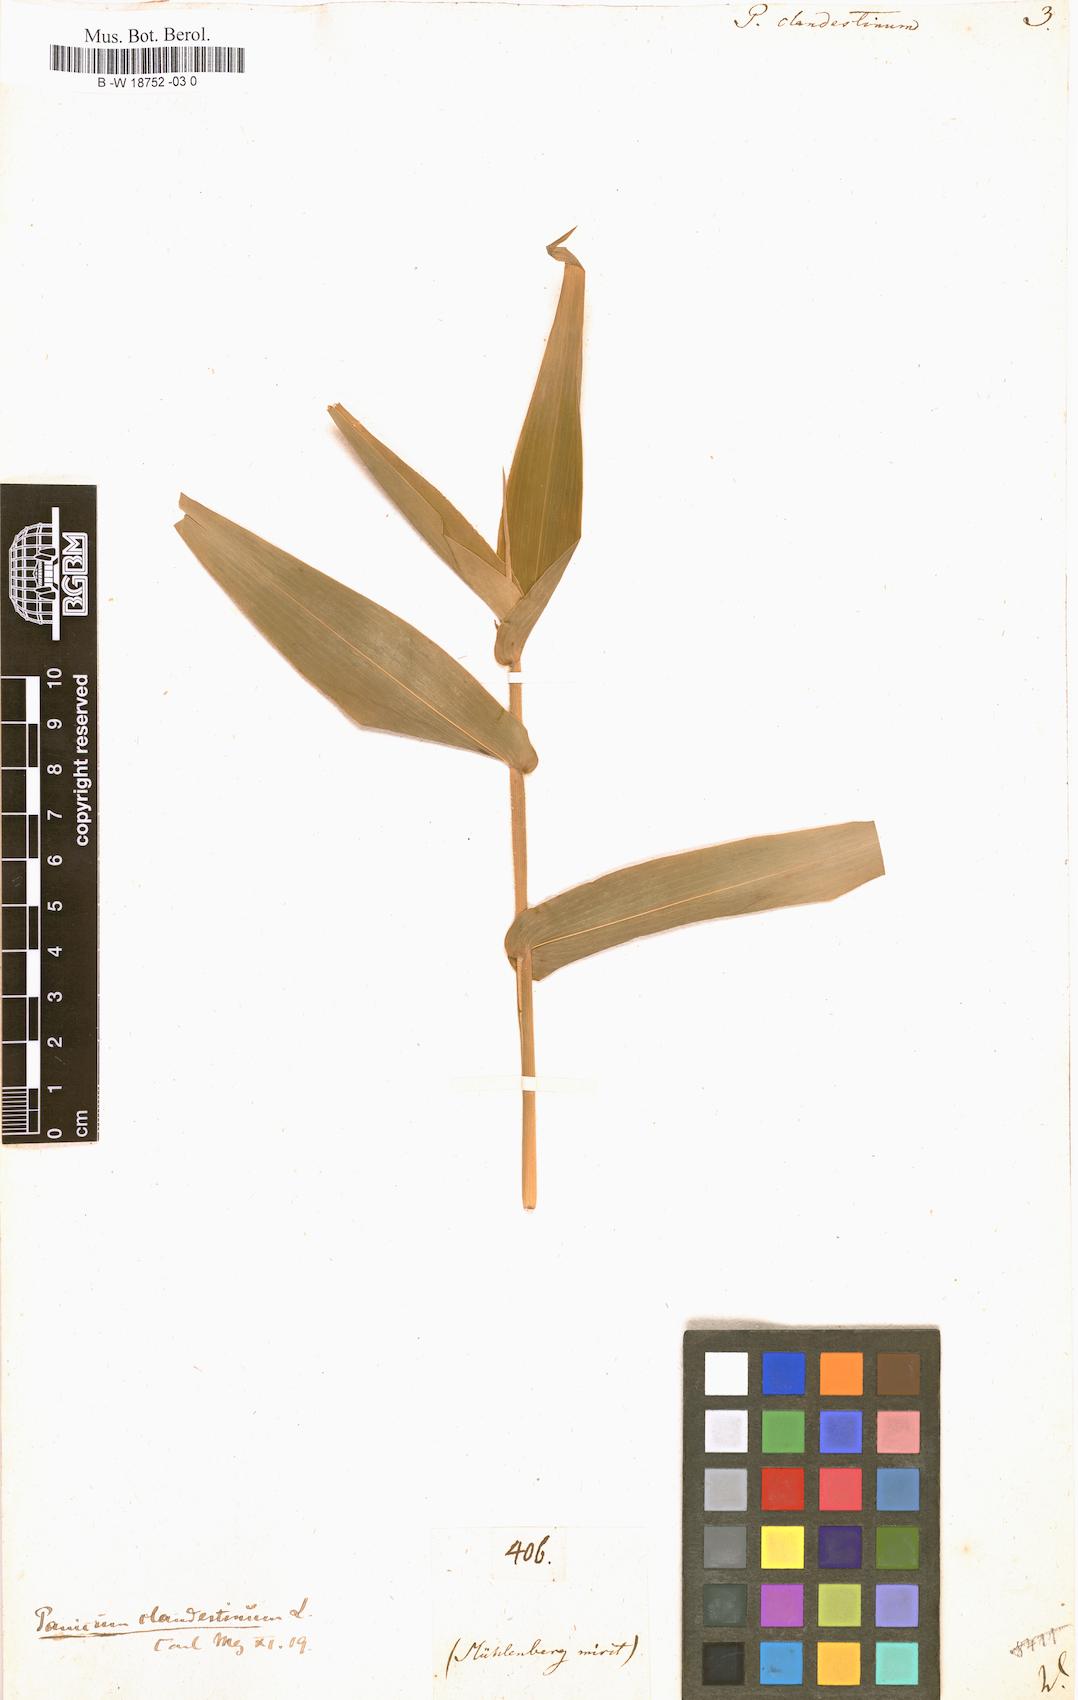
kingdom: Plantae
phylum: Tracheophyta
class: Liliopsida
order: Poales
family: Poaceae
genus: Panicum
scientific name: Panicum clandestinum
